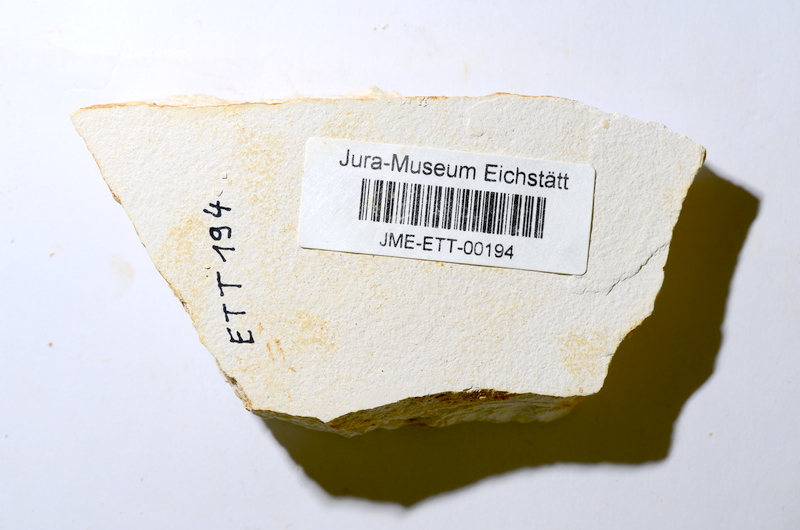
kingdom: Animalia
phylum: Chordata
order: Salmoniformes
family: Orthogonikleithridae
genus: Orthogonikleithrus
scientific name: Orthogonikleithrus hoelli
